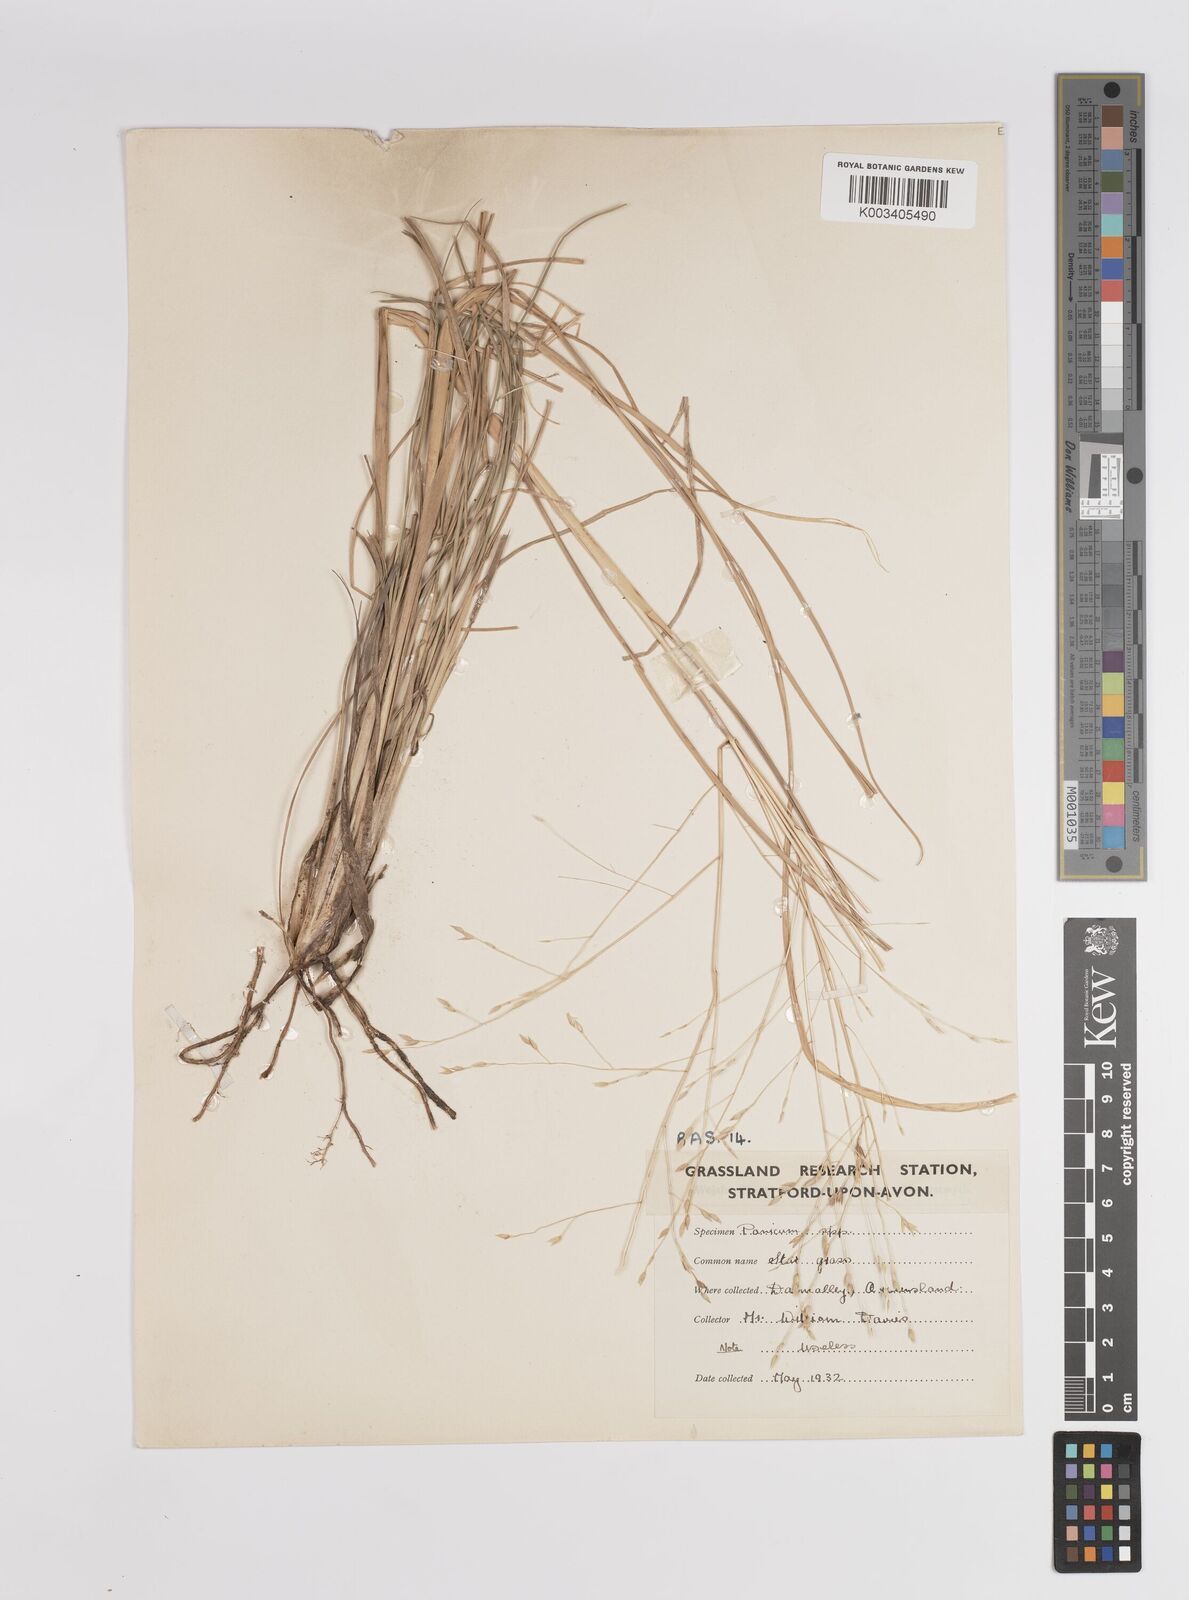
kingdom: Plantae
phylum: Tracheophyta
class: Liliopsida
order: Poales
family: Poaceae
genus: Panicum
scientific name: Panicum
